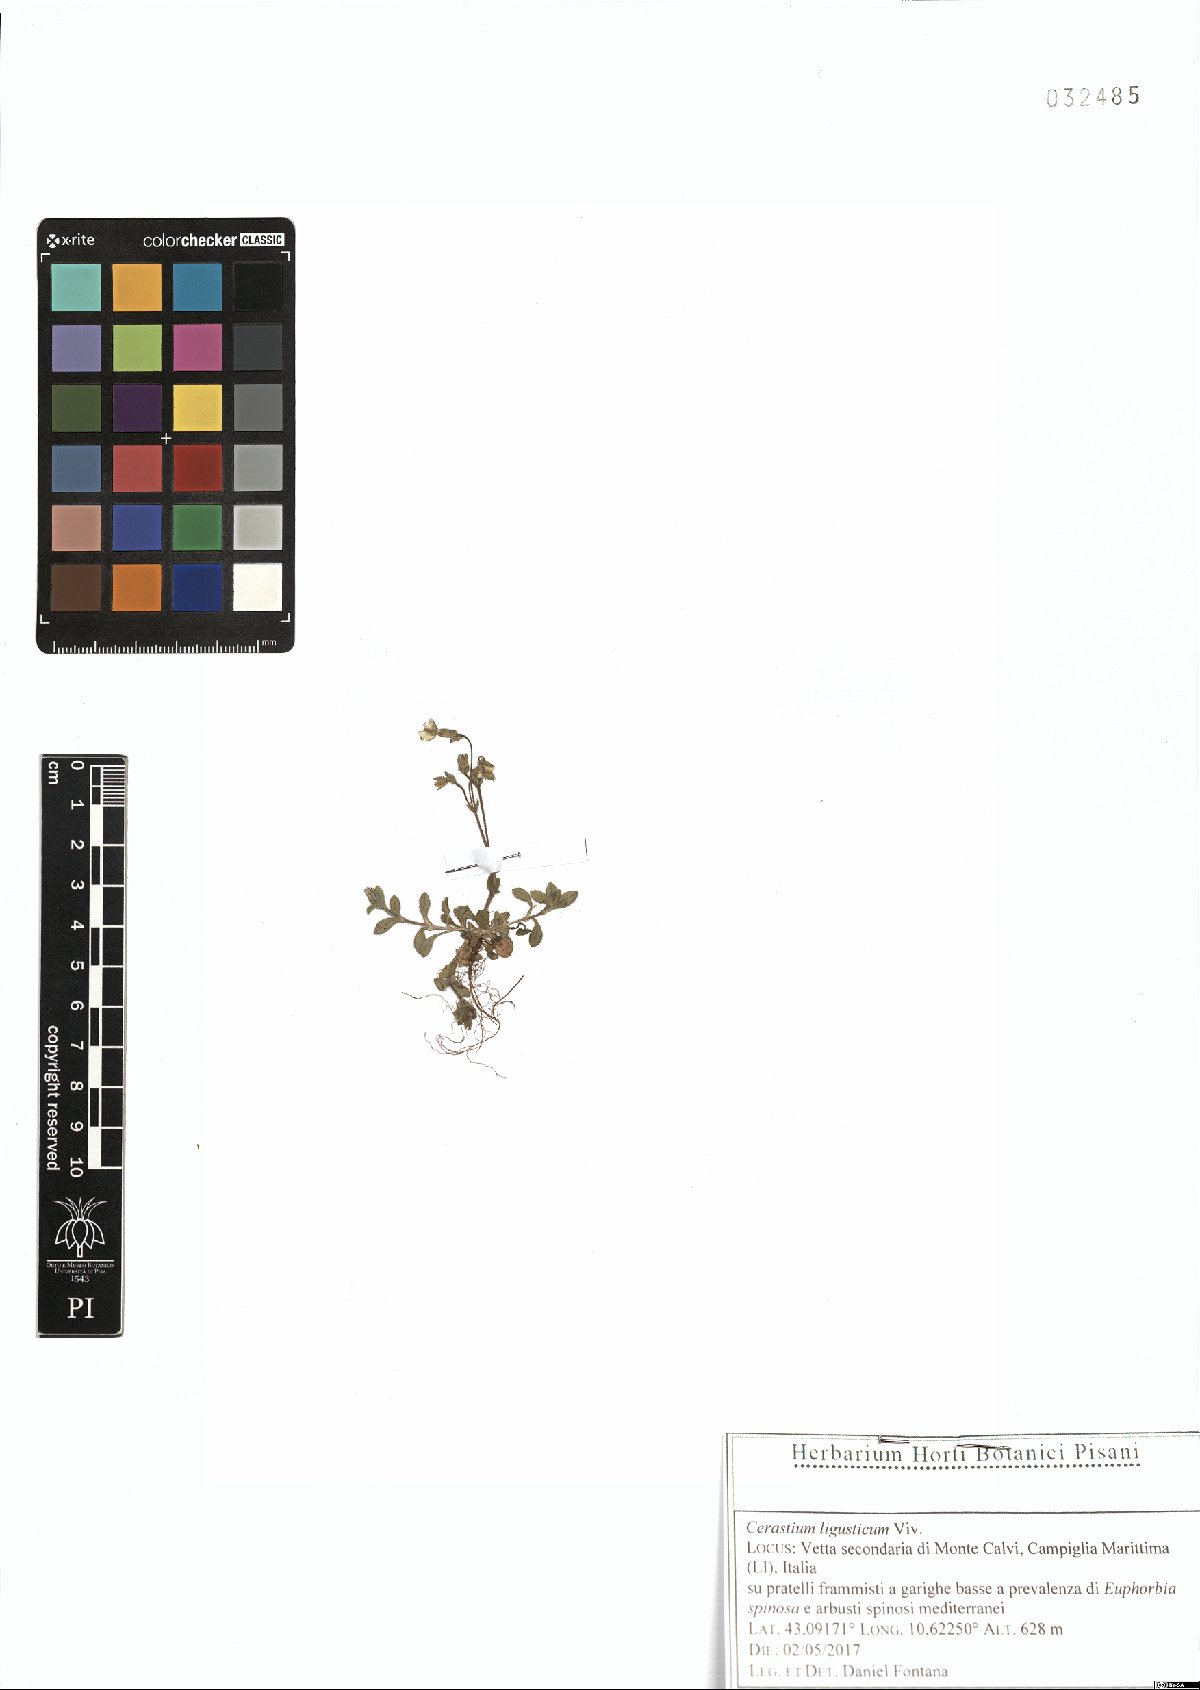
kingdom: Plantae
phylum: Tracheophyta
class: Magnoliopsida
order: Caryophyllales
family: Caryophyllaceae
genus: Cerastium
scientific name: Cerastium ligusticum
